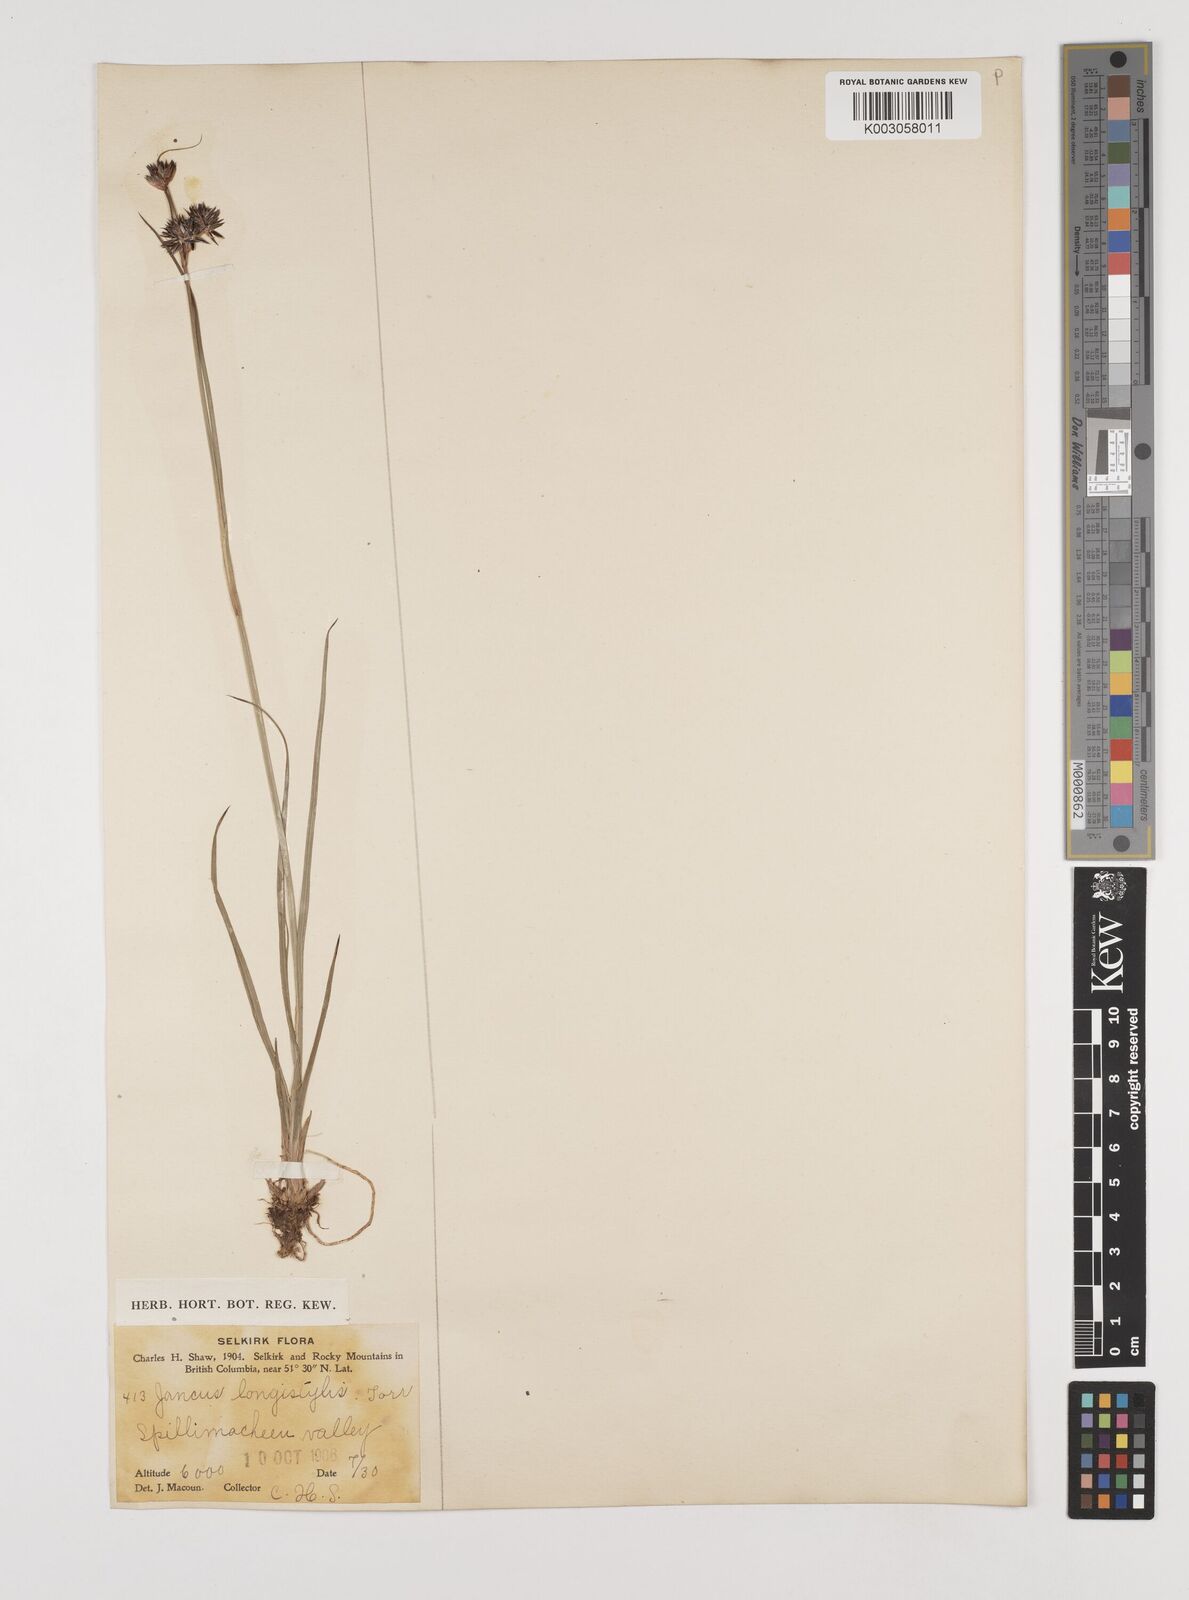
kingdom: Plantae
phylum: Tracheophyta
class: Liliopsida
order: Poales
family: Juncaceae
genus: Juncus
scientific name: Juncus longistylis
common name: Long-style rush
